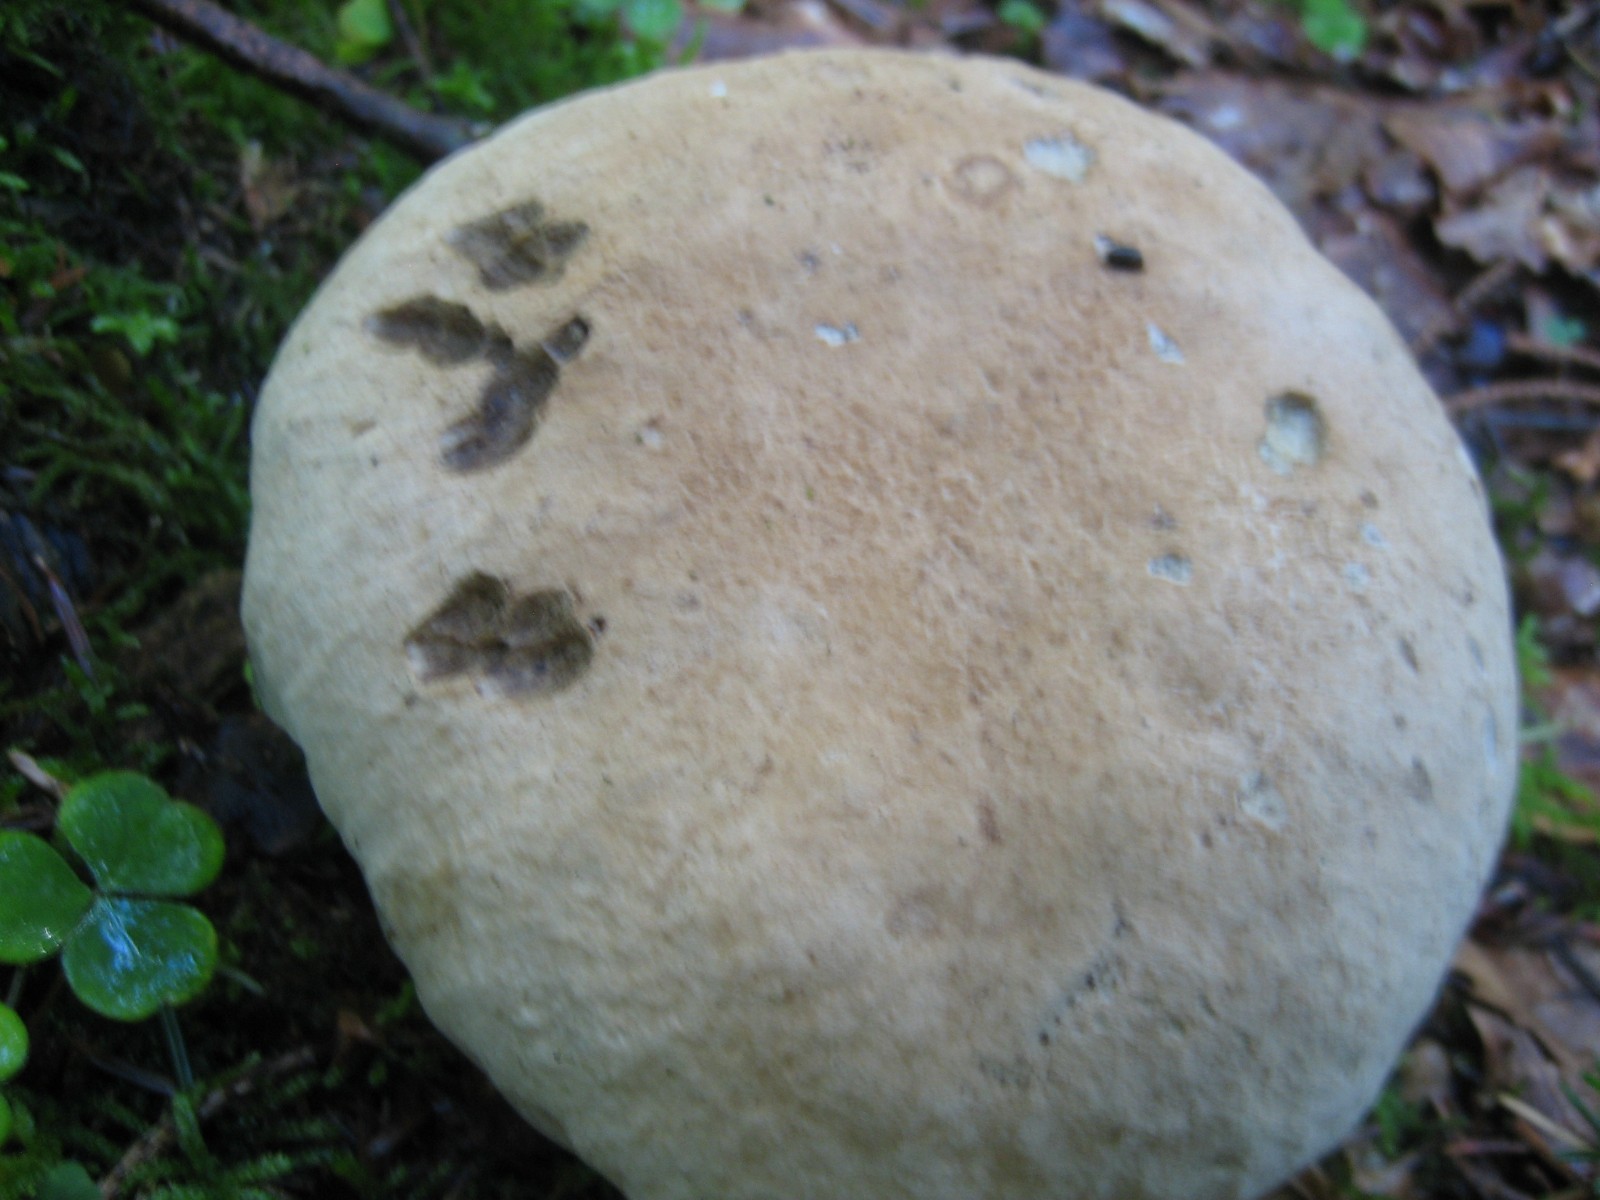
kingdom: Fungi
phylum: Basidiomycota
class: Agaricomycetes
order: Boletales
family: Boletaceae
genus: Caloboletus
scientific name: Caloboletus calopus
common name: skønfodet rørhat
